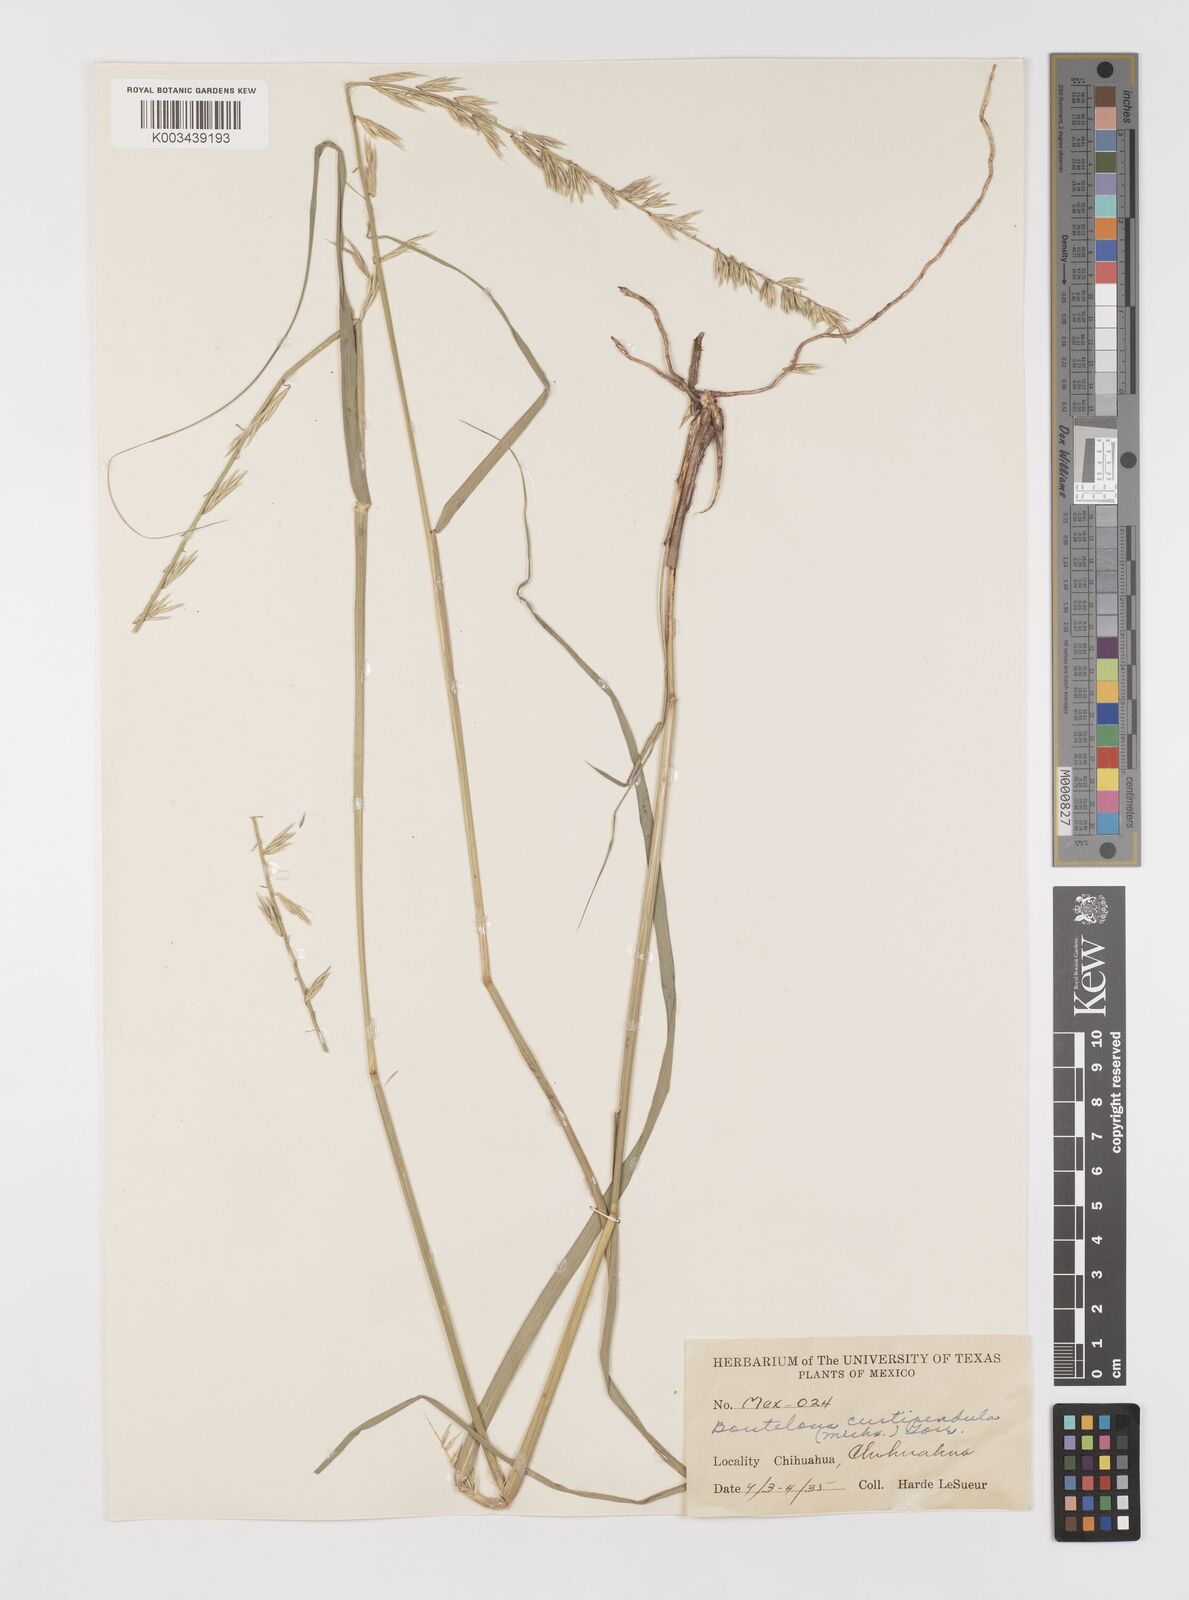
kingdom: Plantae
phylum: Tracheophyta
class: Liliopsida
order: Poales
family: Poaceae
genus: Bouteloua
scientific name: Bouteloua curtipendula
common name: Side-oats grama
